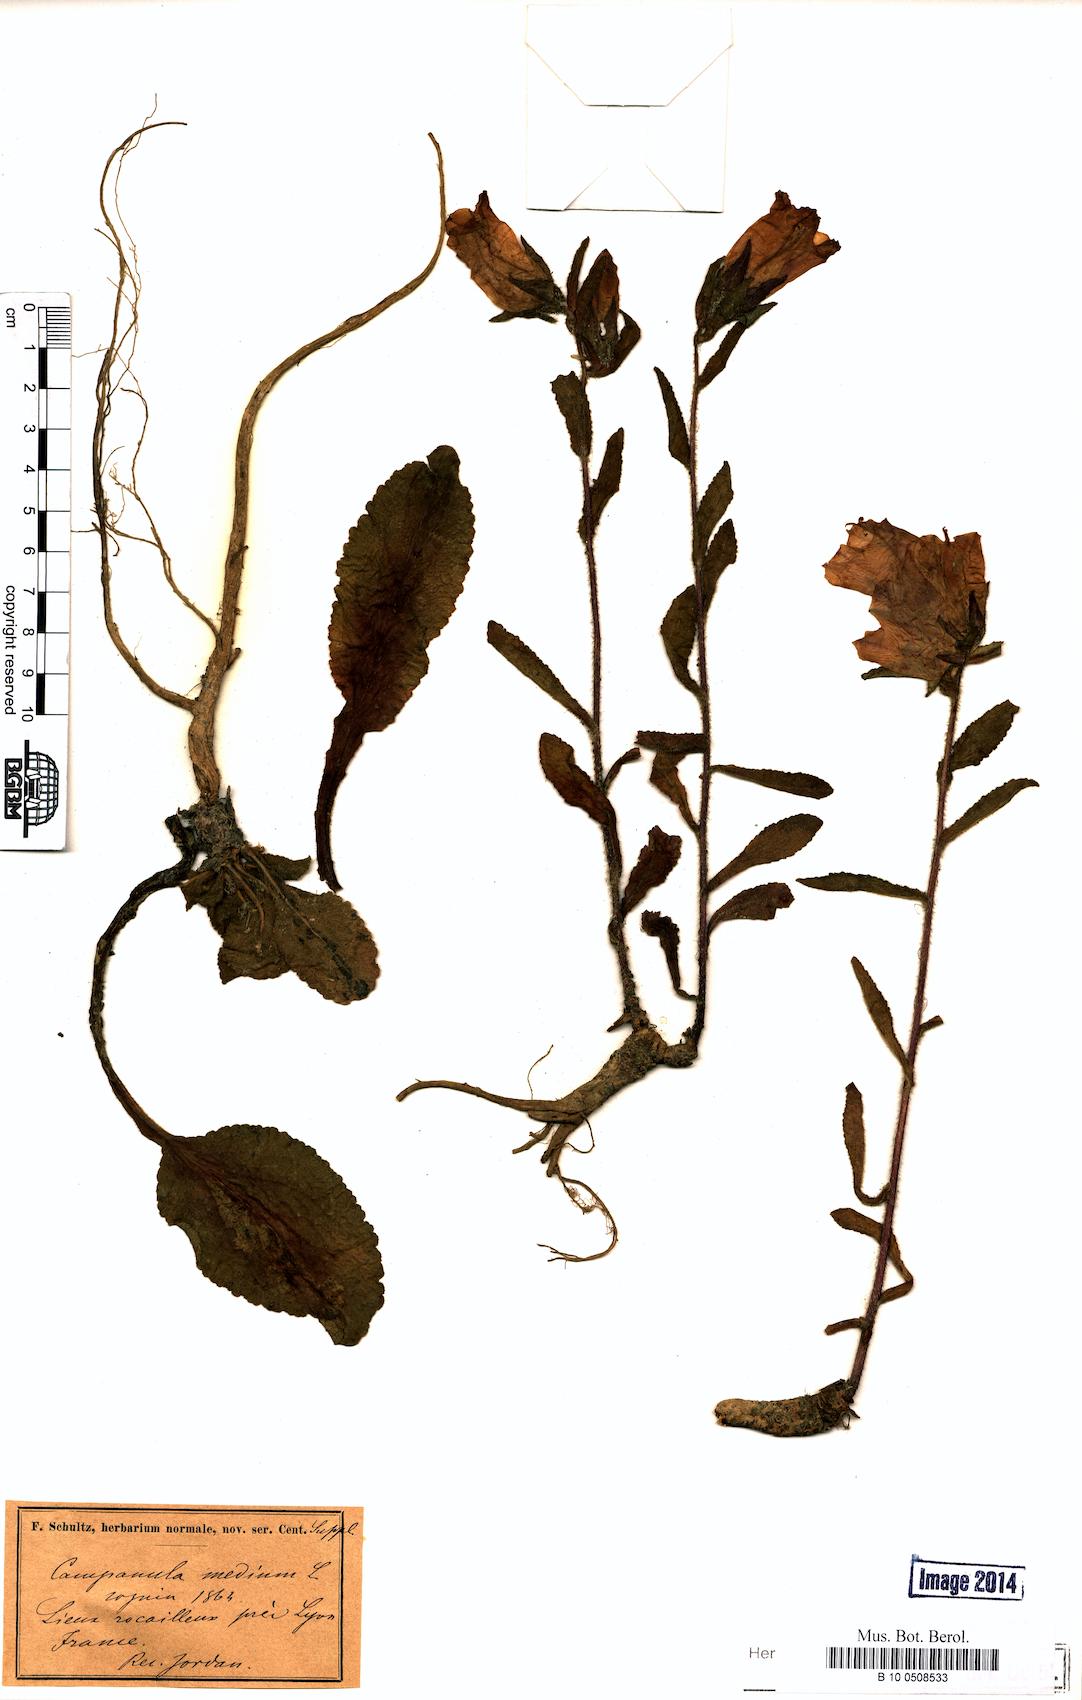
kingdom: Plantae
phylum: Tracheophyta
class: Magnoliopsida
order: Asterales
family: Campanulaceae
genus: Campanula
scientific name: Campanula medium
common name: Canterbury bells
